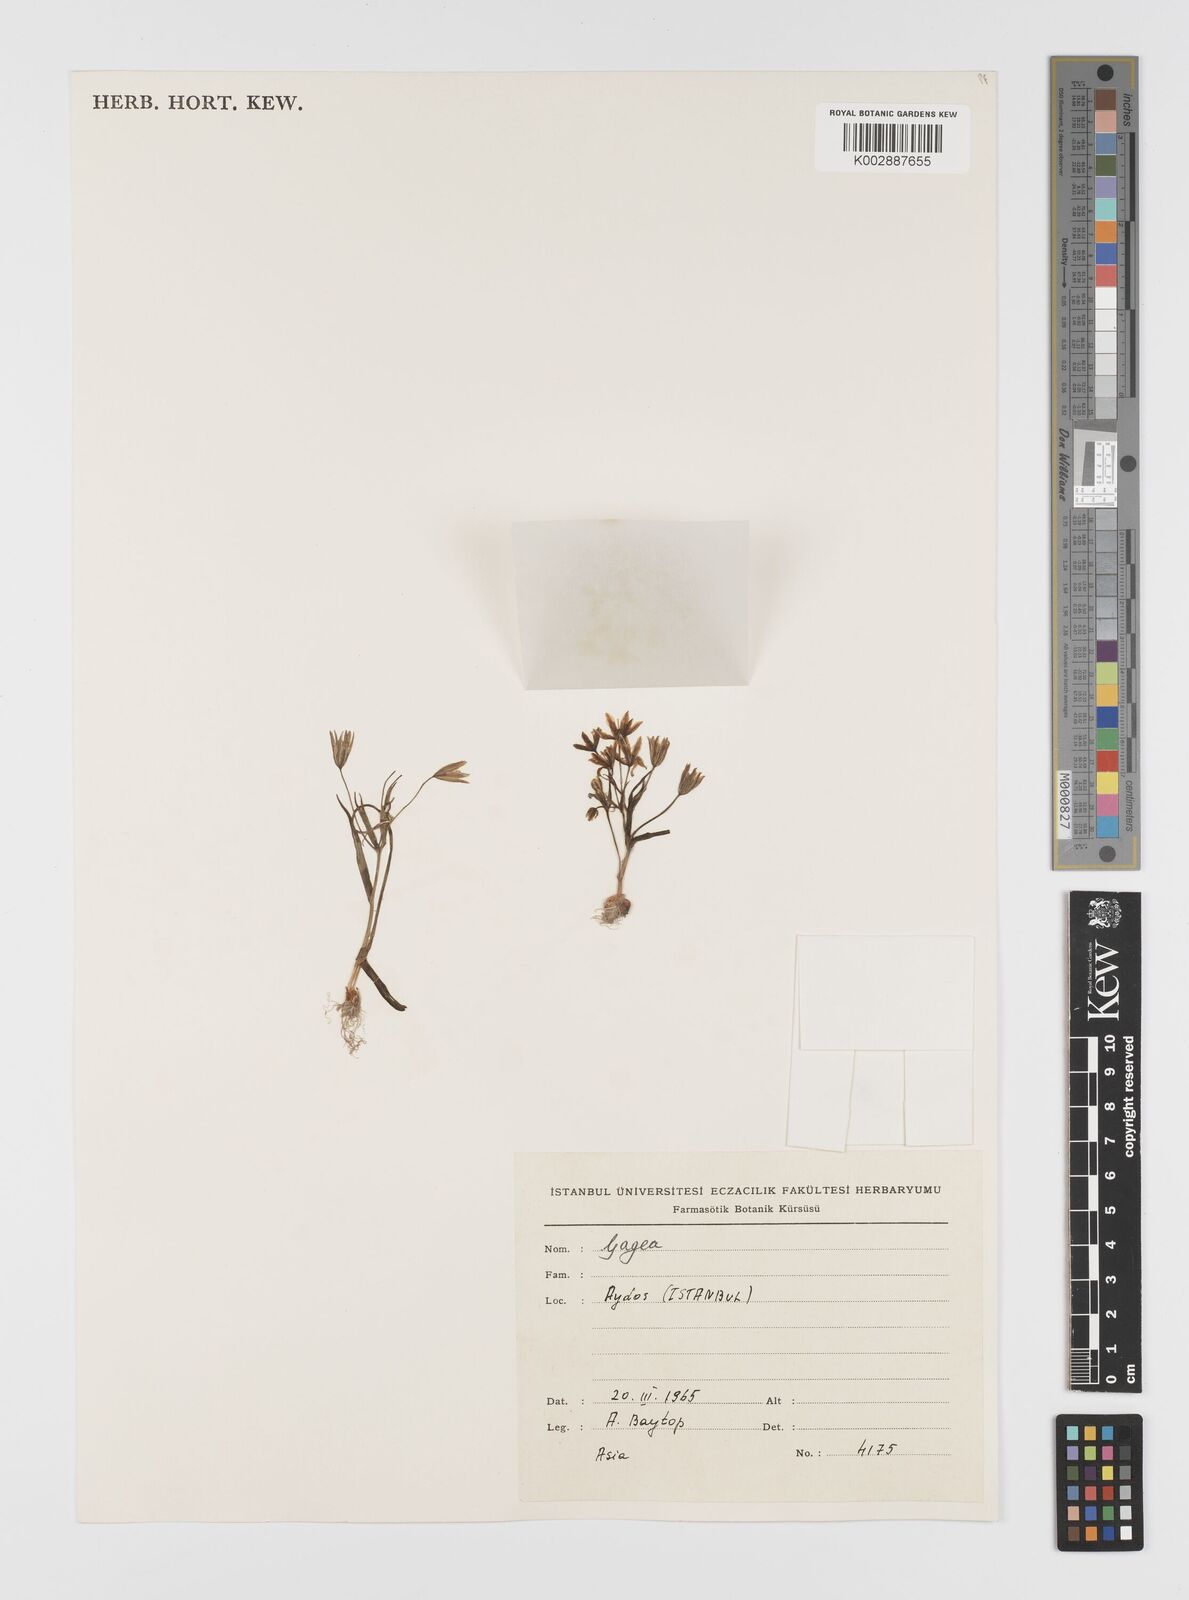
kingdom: Plantae
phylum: Tracheophyta
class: Liliopsida
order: Liliales
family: Liliaceae
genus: Gagea
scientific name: Gagea polymorpha
